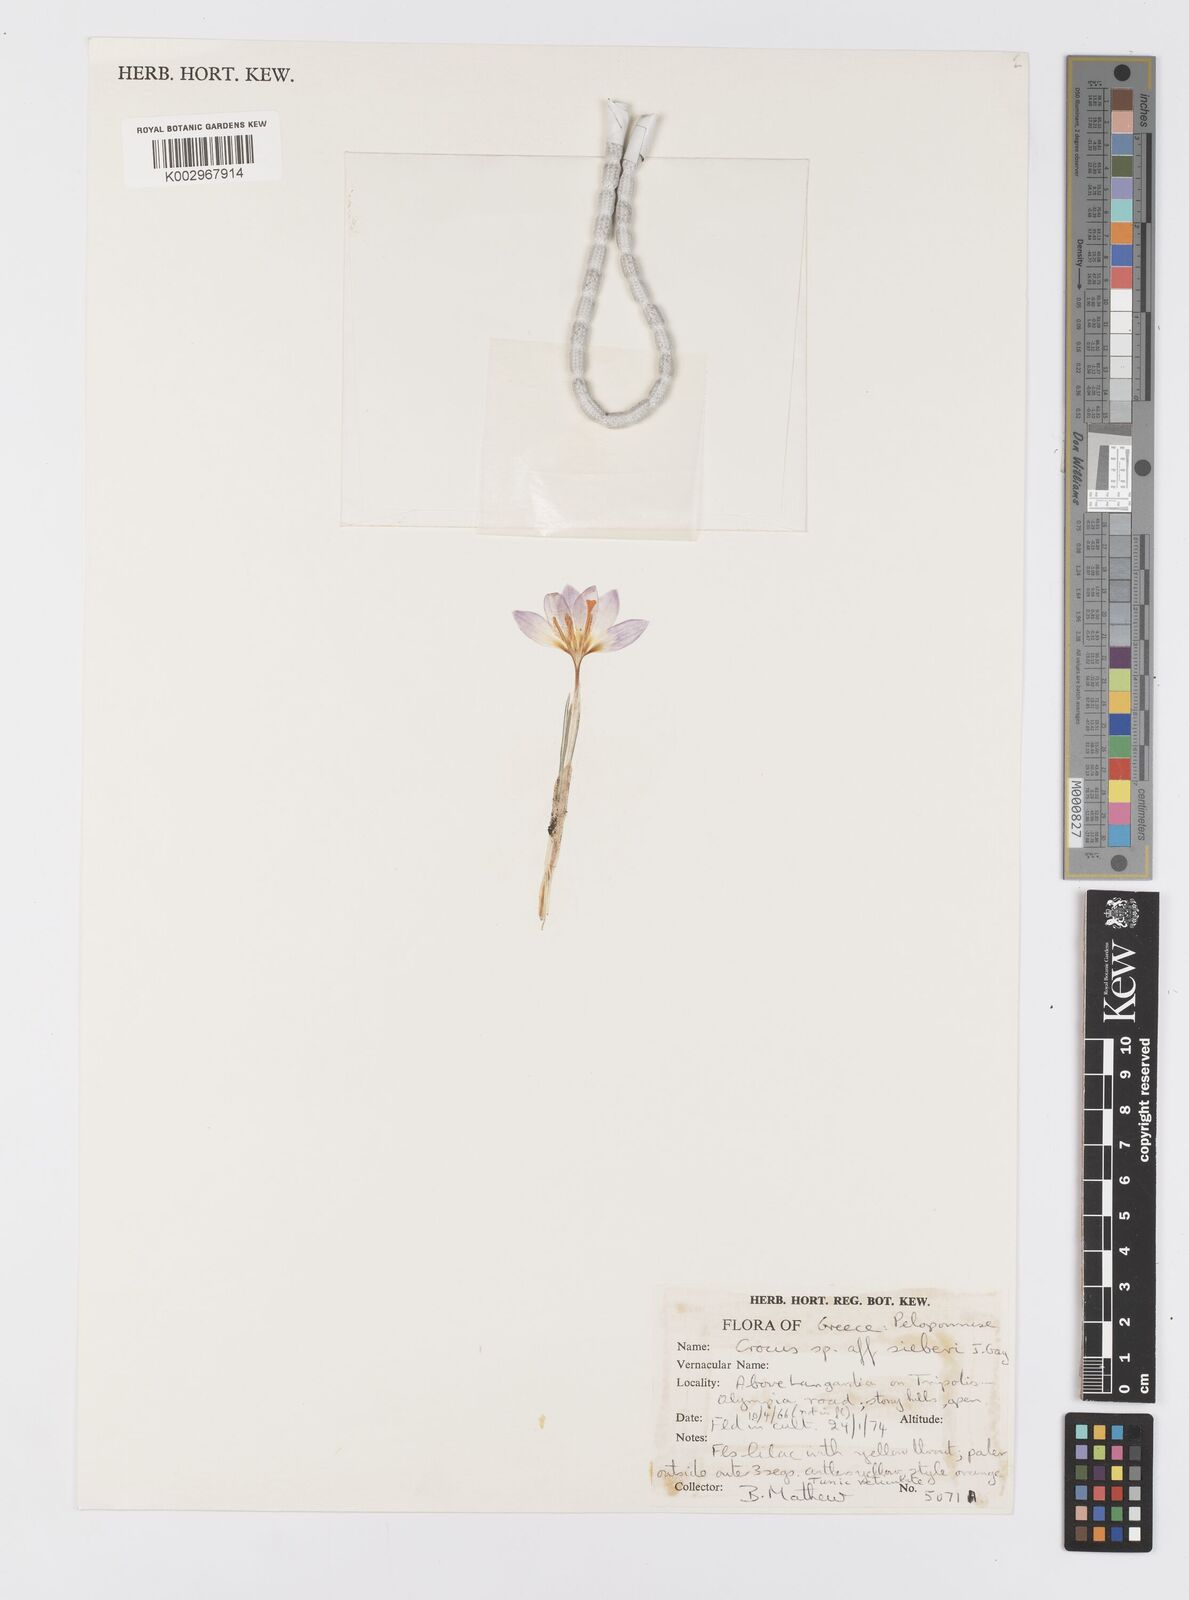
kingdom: Plantae
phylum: Tracheophyta
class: Liliopsida
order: Asparagales
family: Iridaceae
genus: Crocus
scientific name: Crocus
